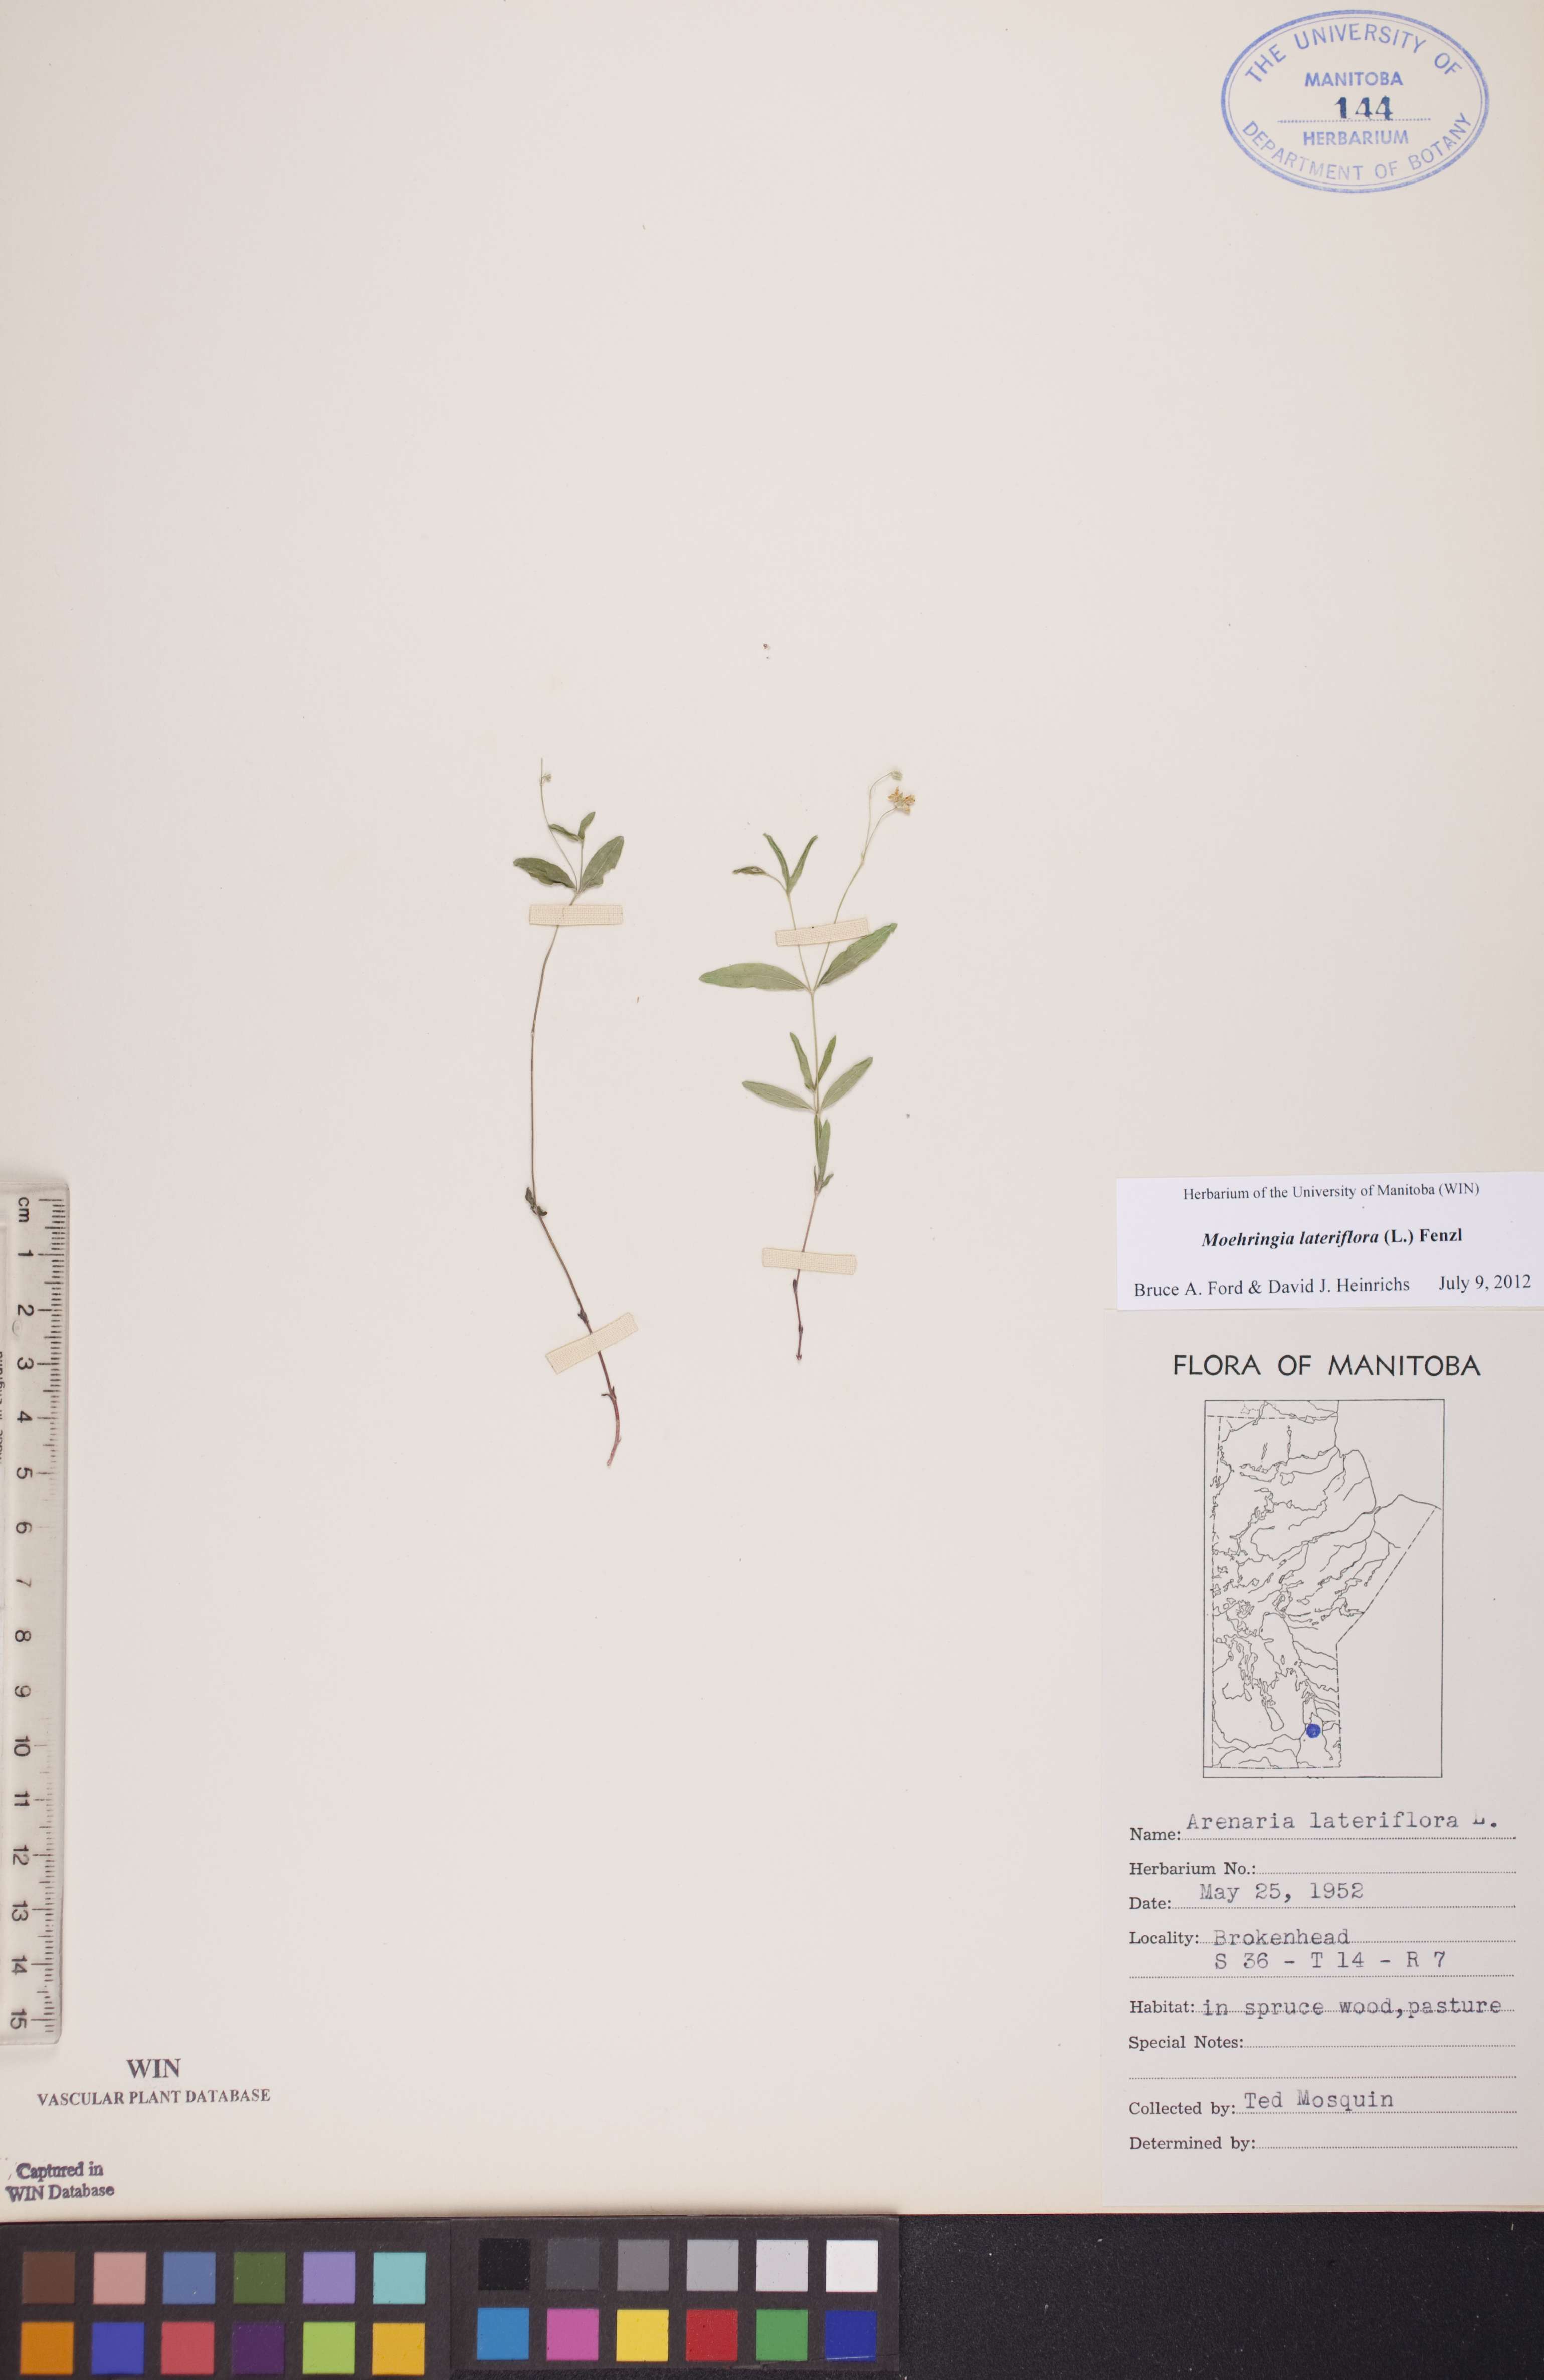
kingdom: Plantae
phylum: Tracheophyta
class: Magnoliopsida
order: Caryophyllales
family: Caryophyllaceae
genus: Moehringia
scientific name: Moehringia lateriflora
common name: Blunt-leaved sandwort
